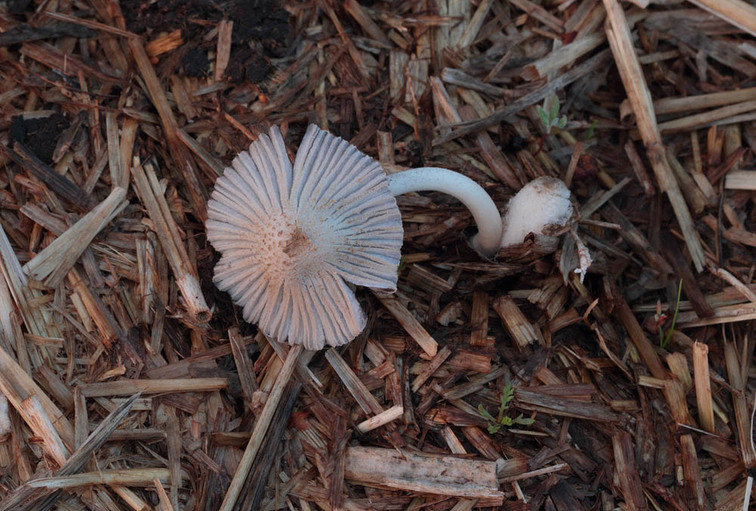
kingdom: Fungi
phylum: Basidiomycota
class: Agaricomycetes
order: Agaricales
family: Psathyrellaceae
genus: Coprinellus
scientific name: Coprinellus flocculosus
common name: fnugget blækhat
